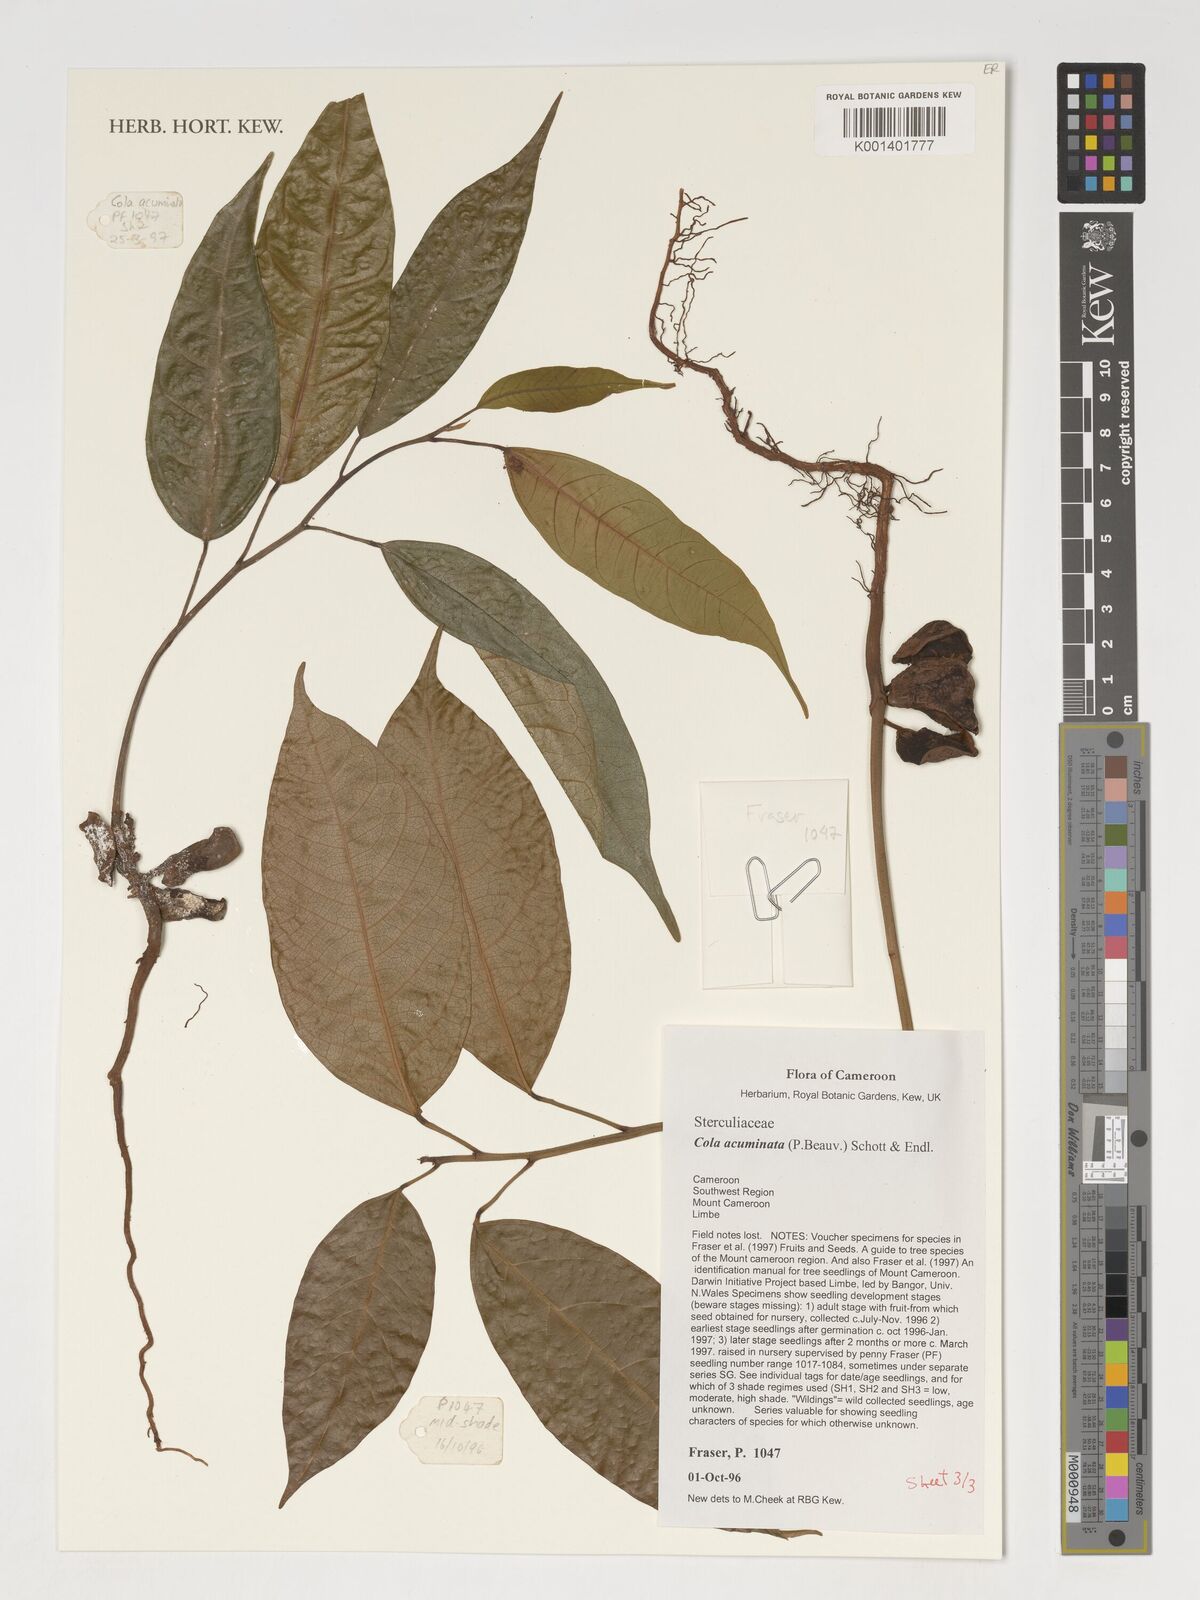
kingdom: Plantae
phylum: Tracheophyta
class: Magnoliopsida
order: Malvales
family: Malvaceae
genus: Cola
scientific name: Cola acuminata
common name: True kola
